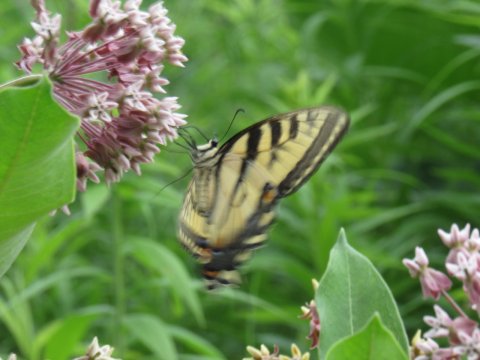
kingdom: Animalia
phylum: Arthropoda
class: Insecta
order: Lepidoptera
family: Papilionidae
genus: Pterourus
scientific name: Pterourus
